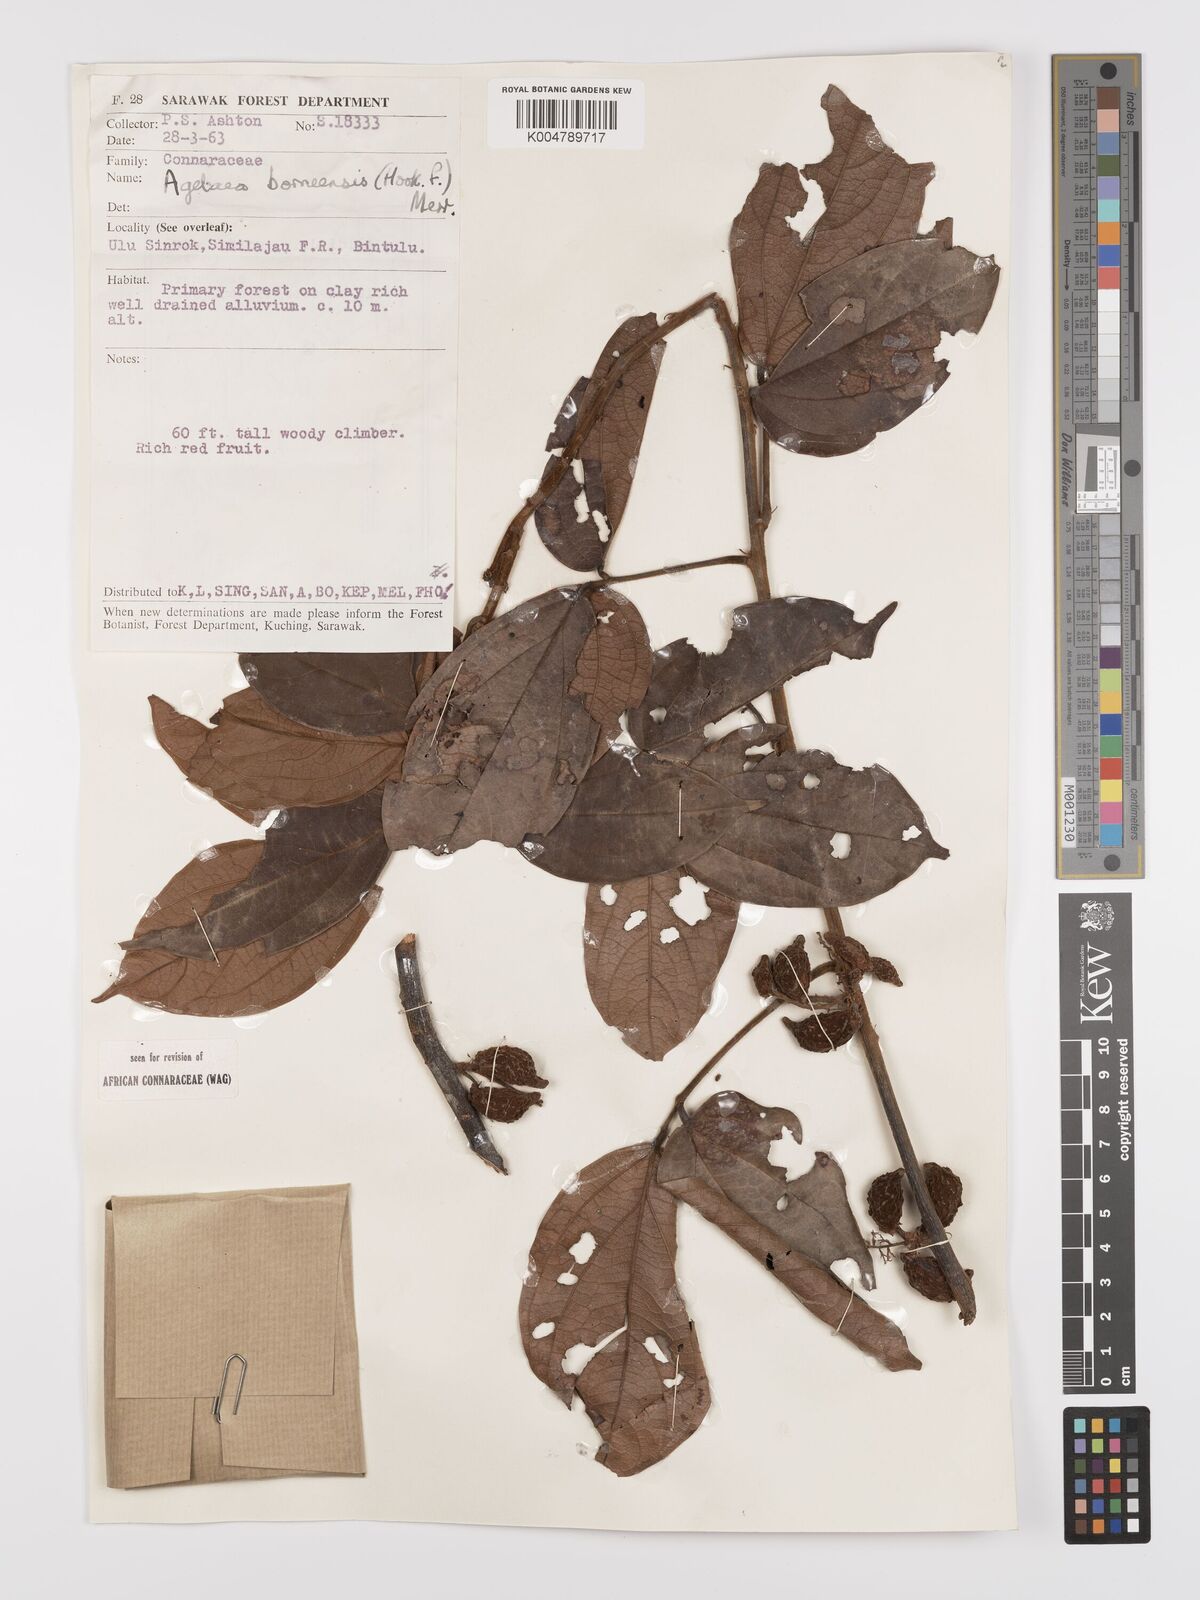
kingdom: Plantae
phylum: Tracheophyta
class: Magnoliopsida
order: Oxalidales
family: Connaraceae
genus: Agelaea
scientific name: Agelaea borneensis
